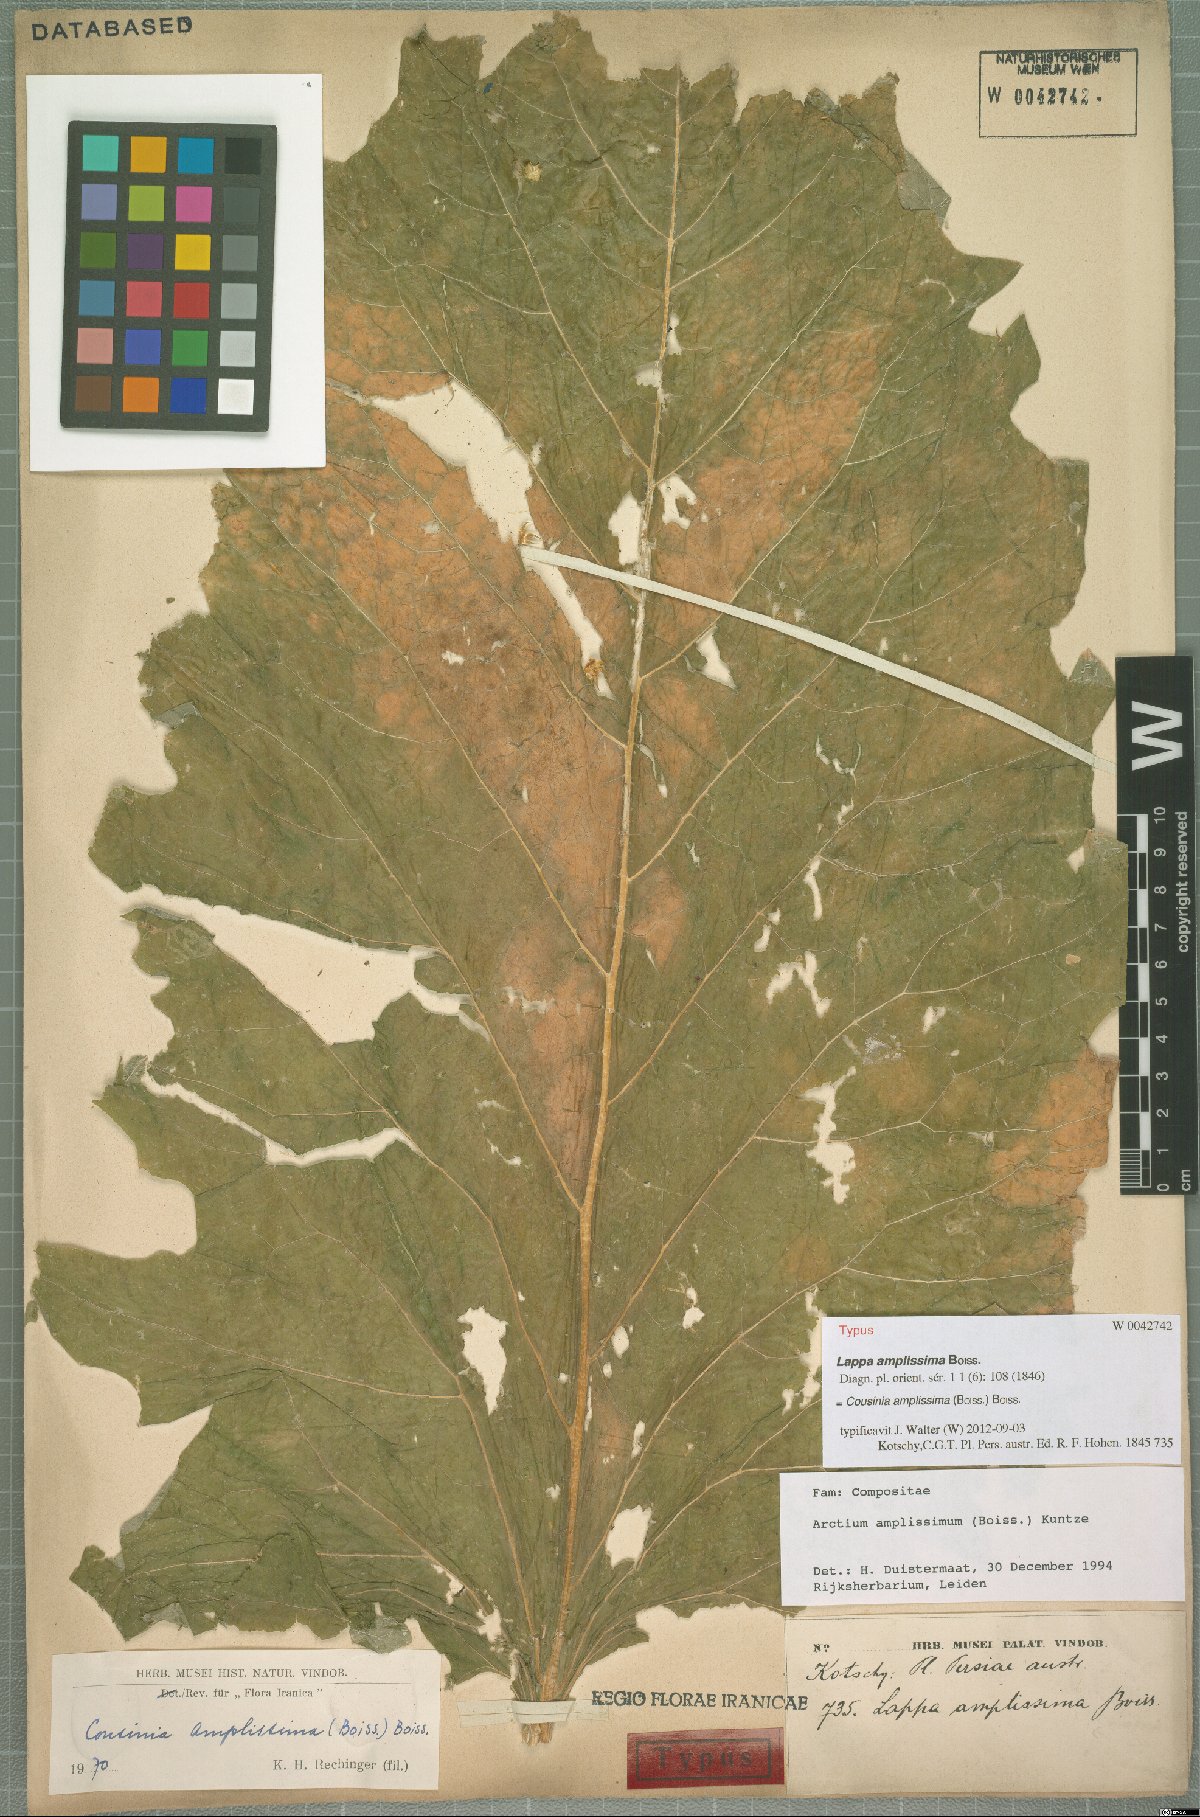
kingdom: Plantae
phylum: Tracheophyta
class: Magnoliopsida
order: Asterales
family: Asteraceae
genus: Arctium
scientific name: Arctium amplissimum
